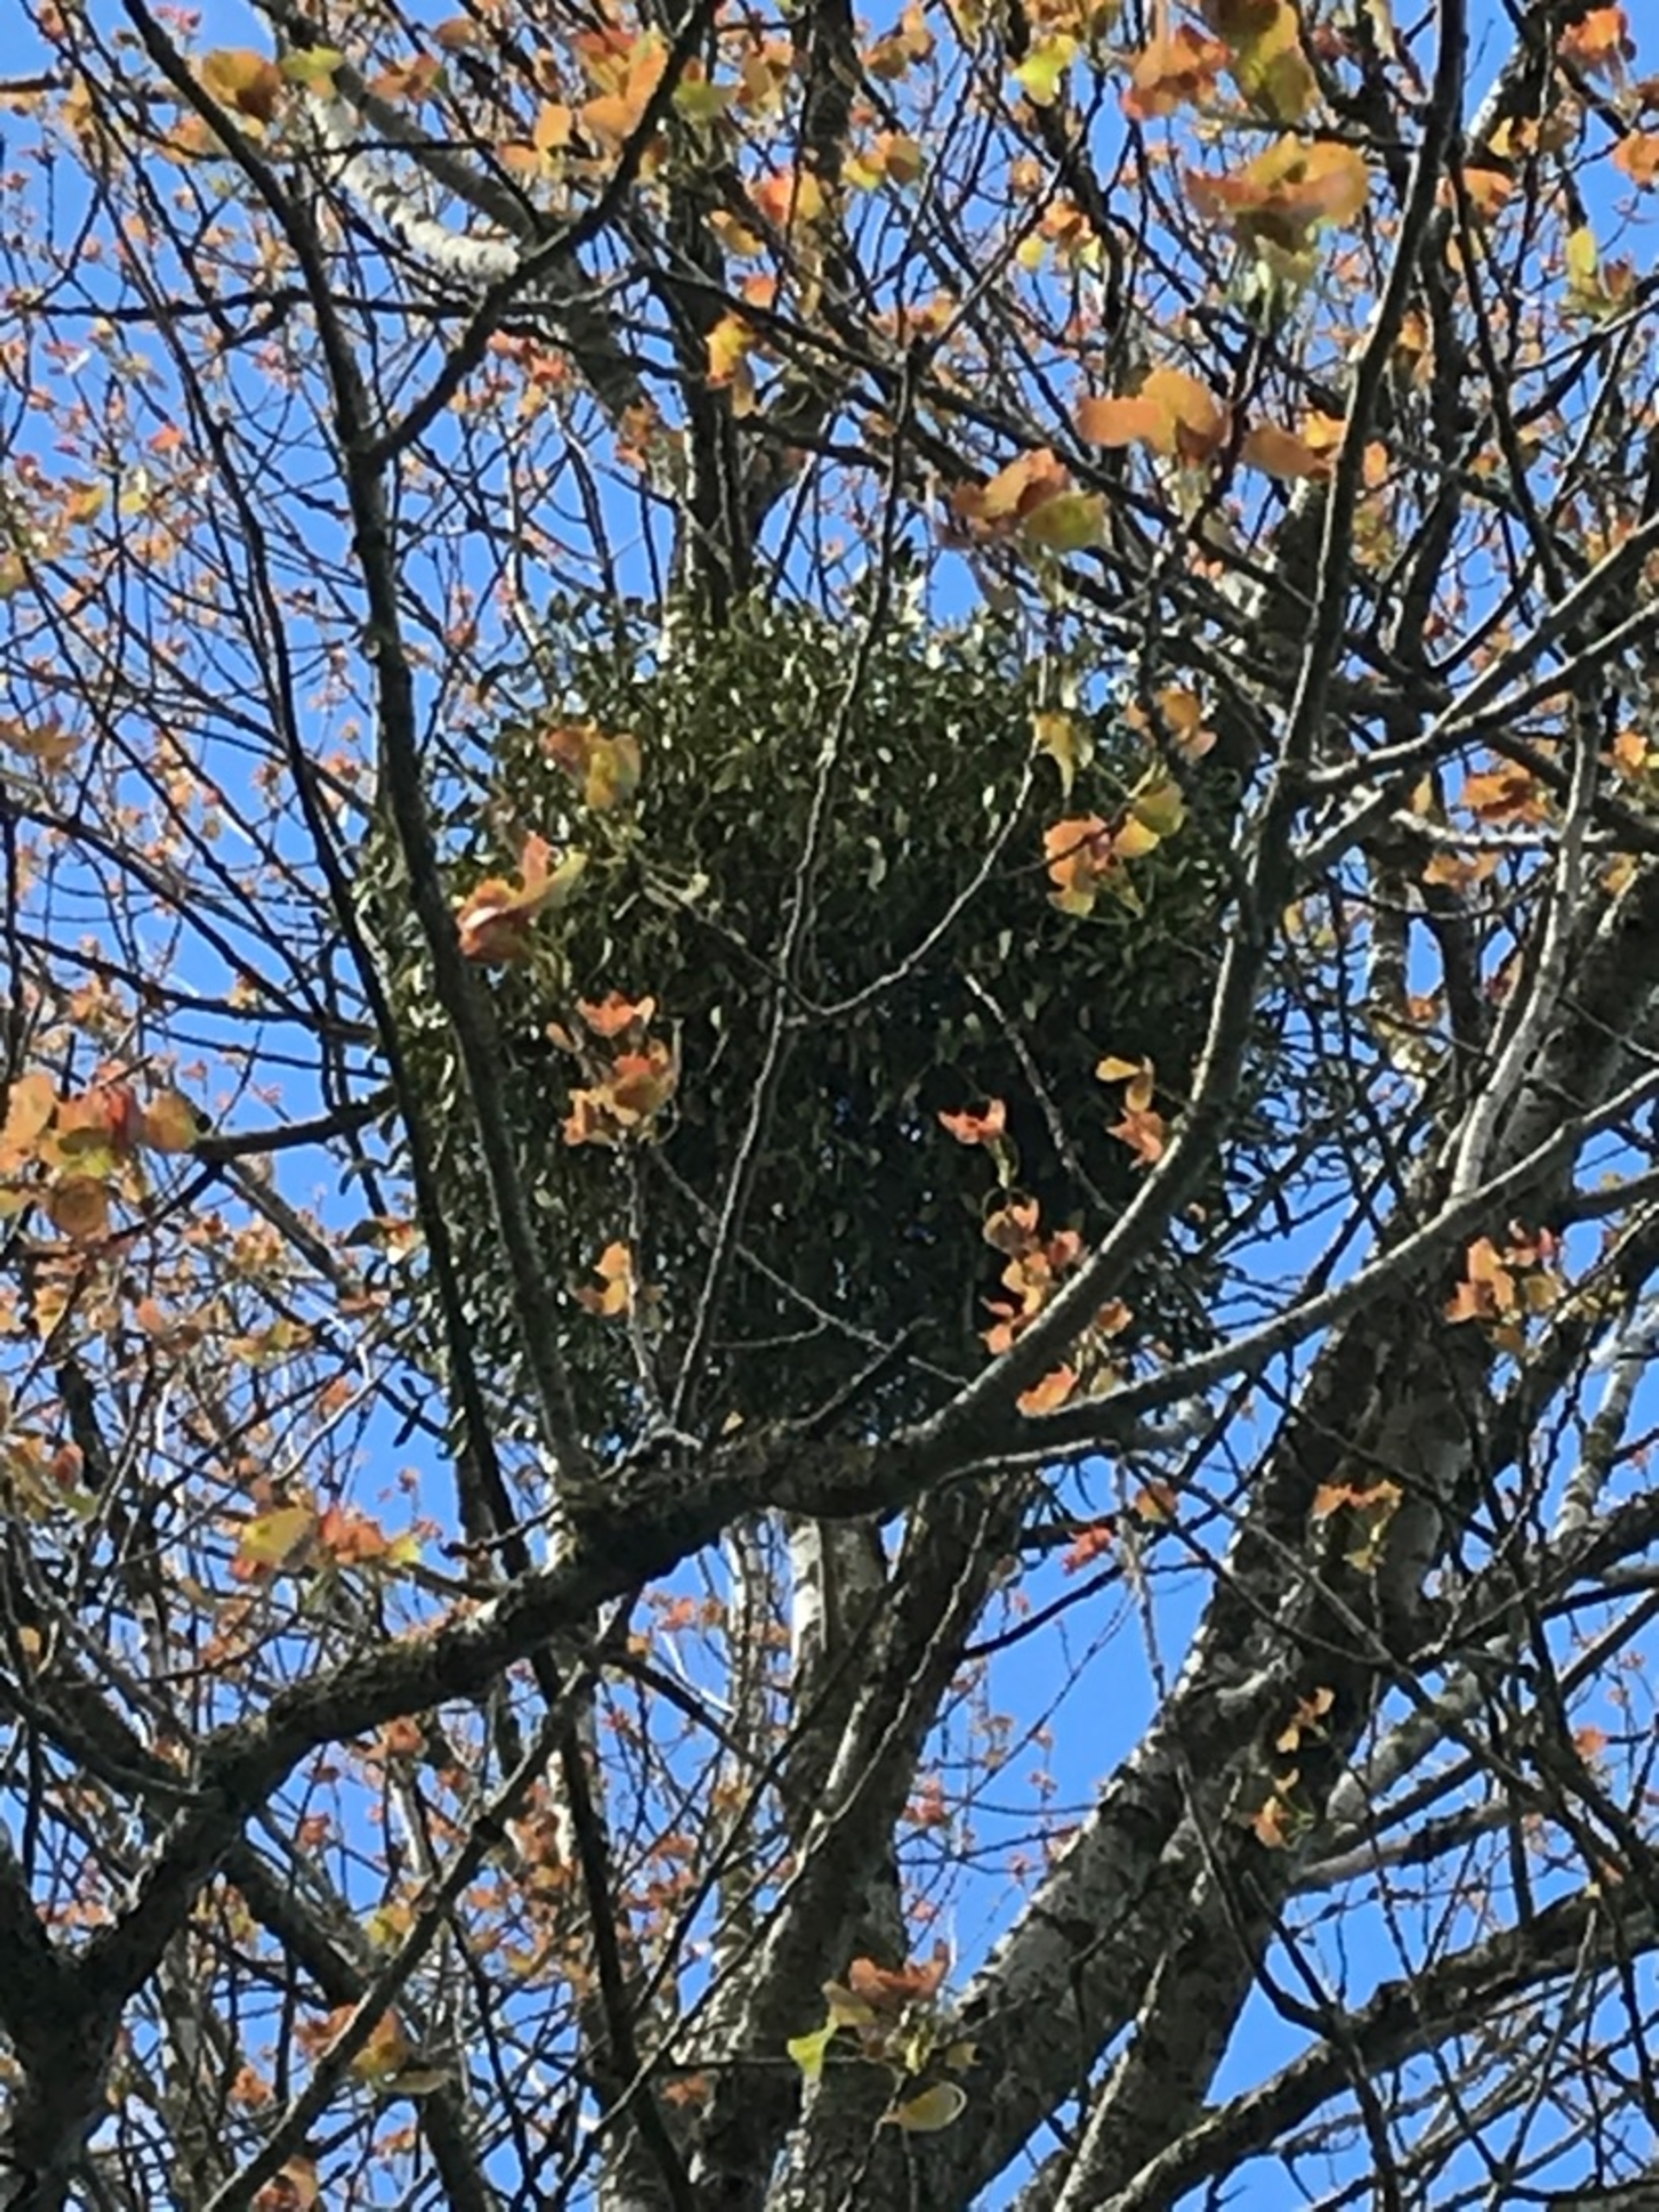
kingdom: Plantae
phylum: Tracheophyta
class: Magnoliopsida
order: Santalales
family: Viscaceae
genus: Viscum
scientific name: Viscum album
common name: Mistelten
